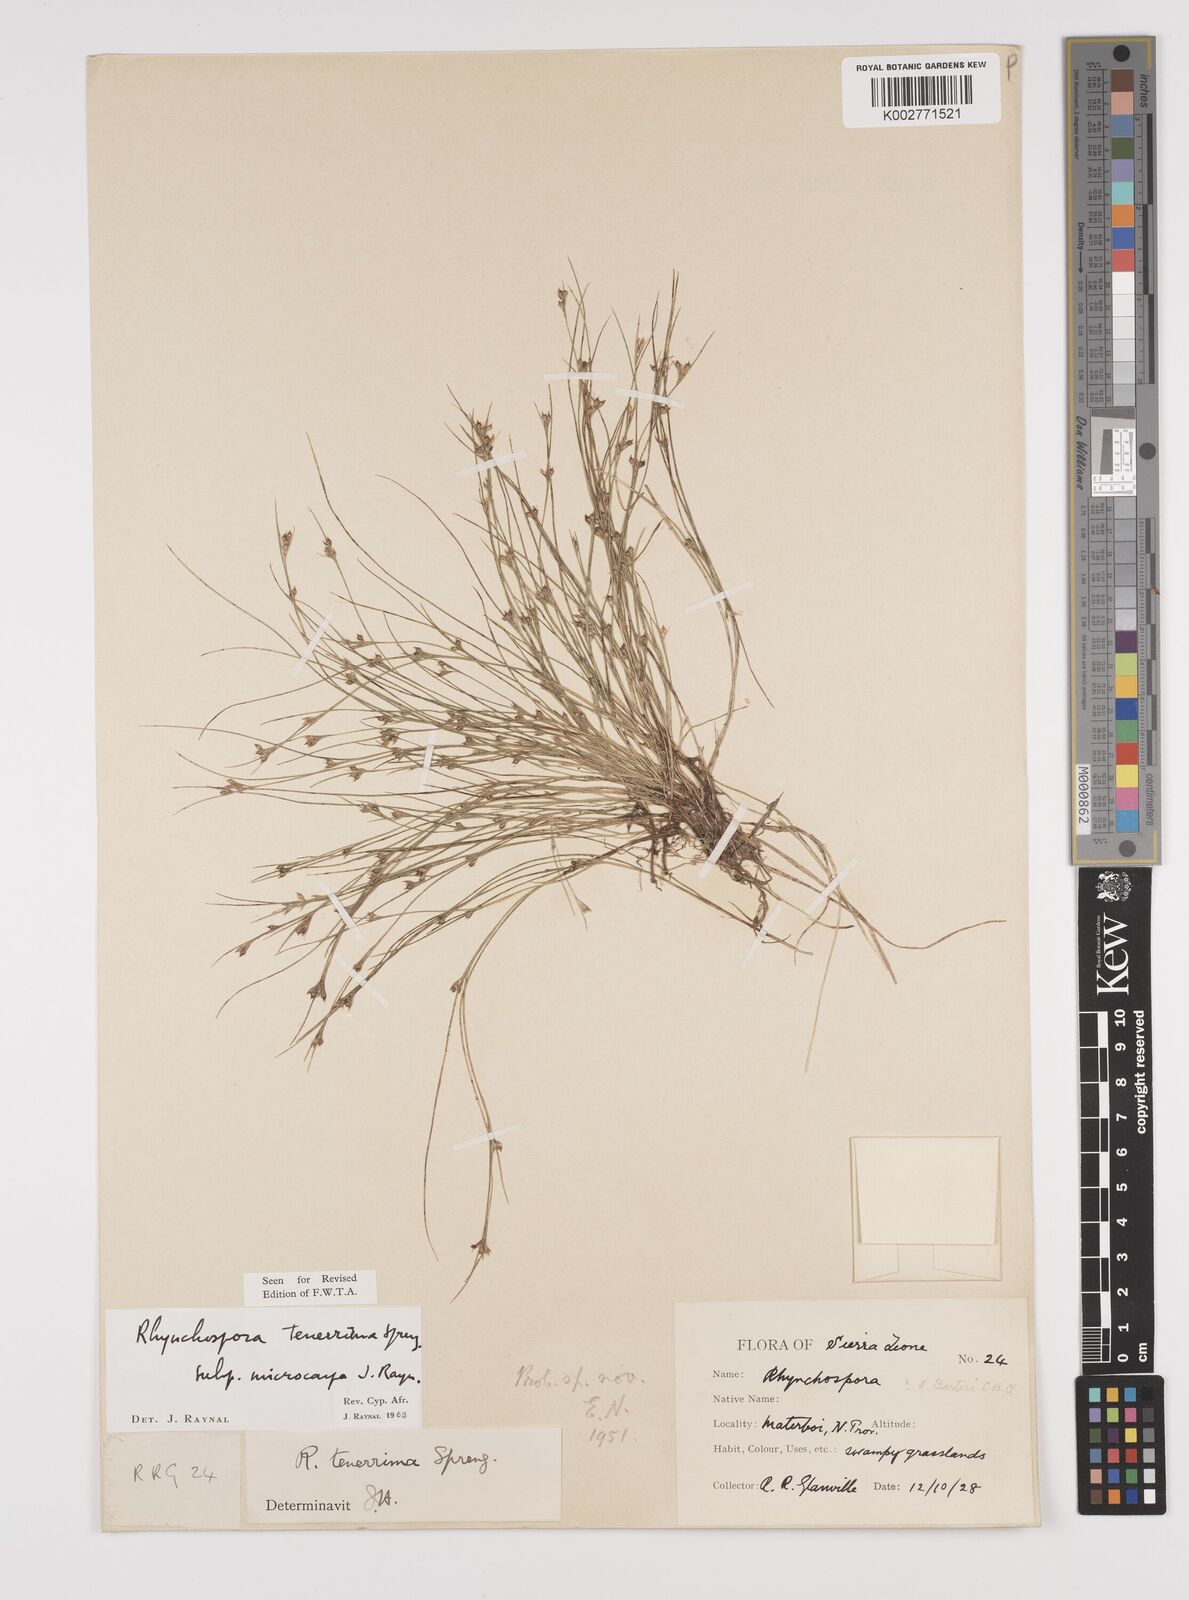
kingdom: Plantae
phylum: Tracheophyta
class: Liliopsida
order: Poales
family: Cyperaceae
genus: Rhynchospora
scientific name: Rhynchospora tenerrima
